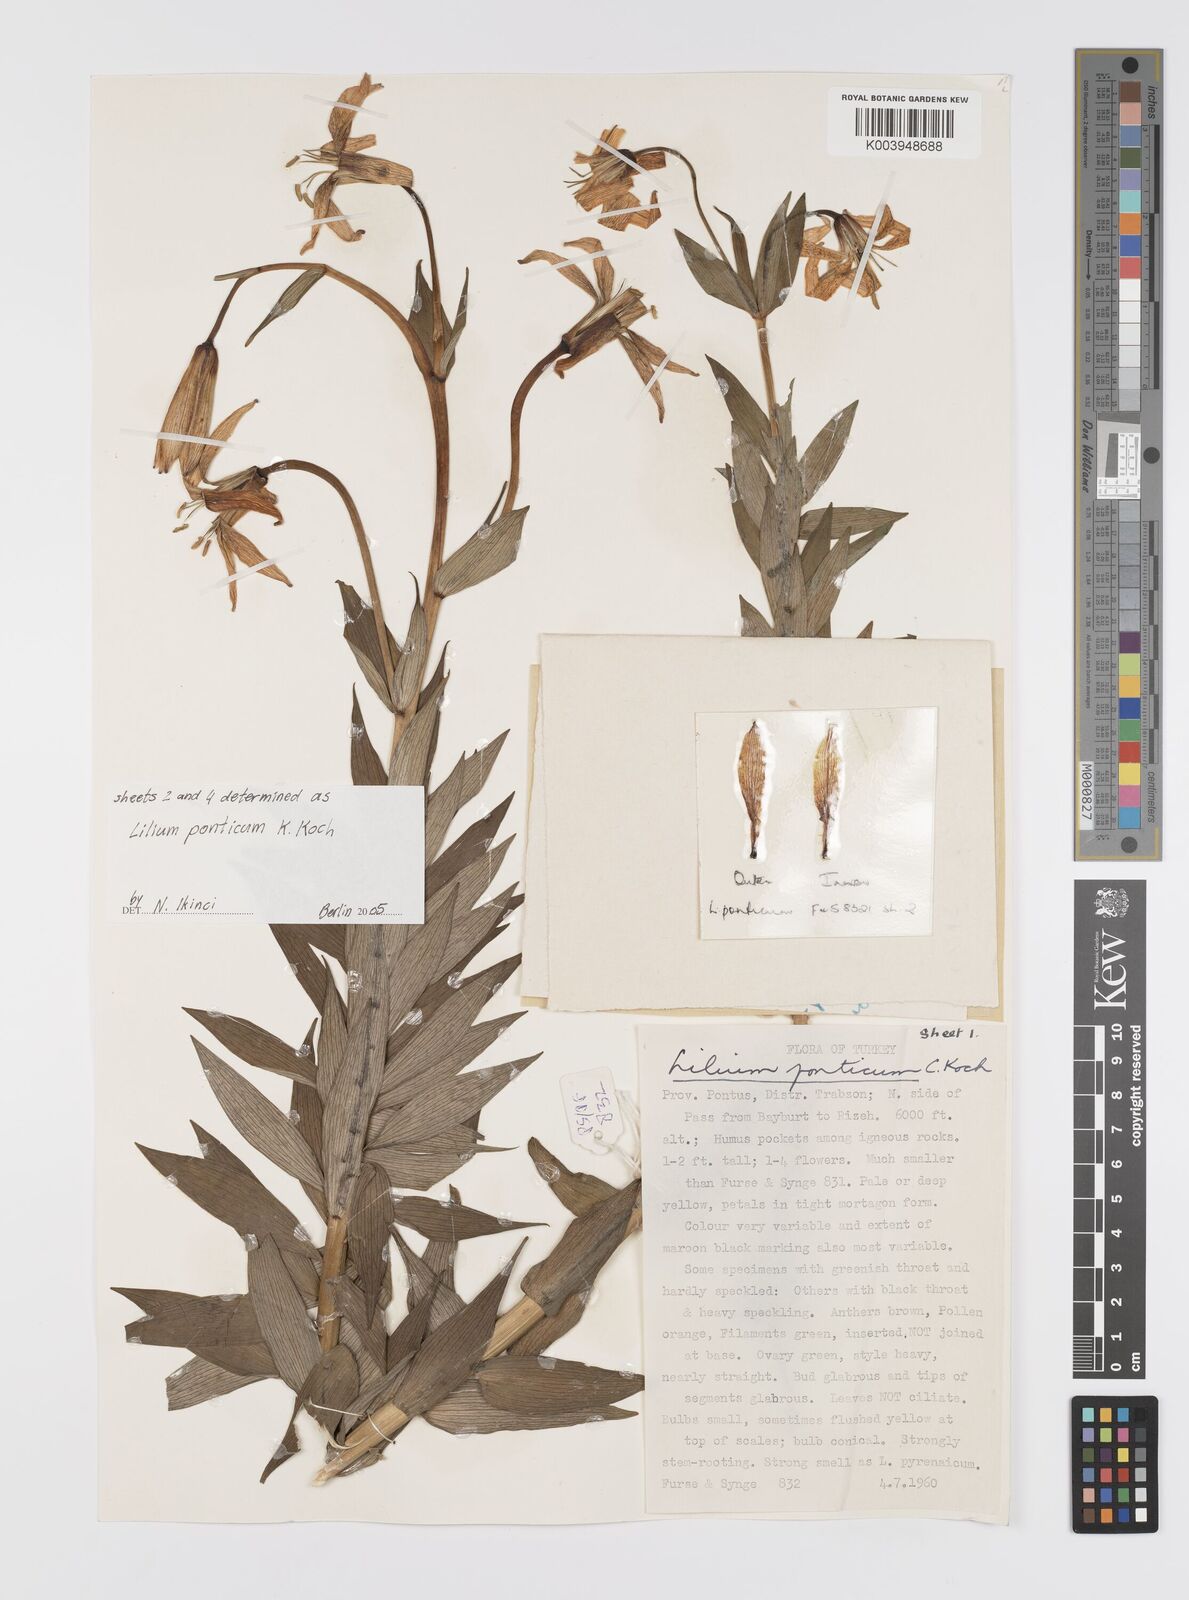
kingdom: Plantae
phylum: Tracheophyta
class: Liliopsida
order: Liliales
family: Liliaceae
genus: Lilium
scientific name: Lilium ponticum
